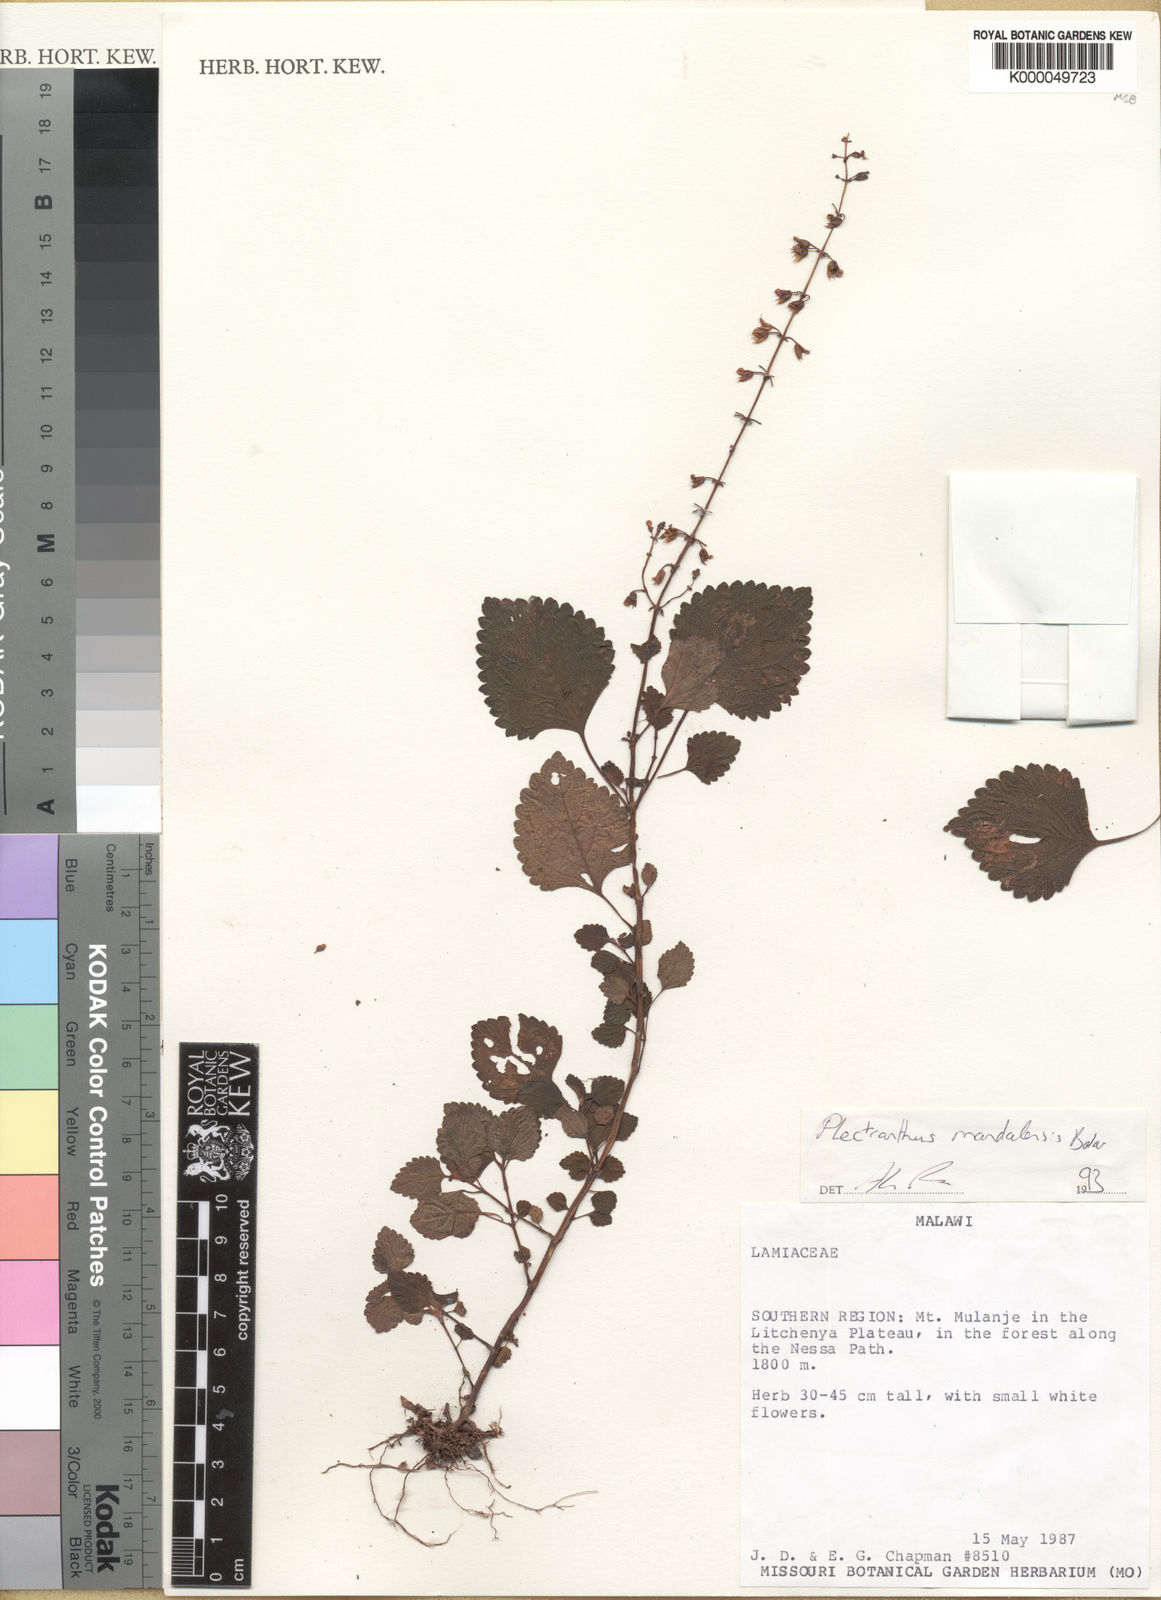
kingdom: Plantae
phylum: Tracheophyta
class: Magnoliopsida
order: Lamiales
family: Lamiaceae
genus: Plectranthus
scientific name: Plectranthus mandalensis
